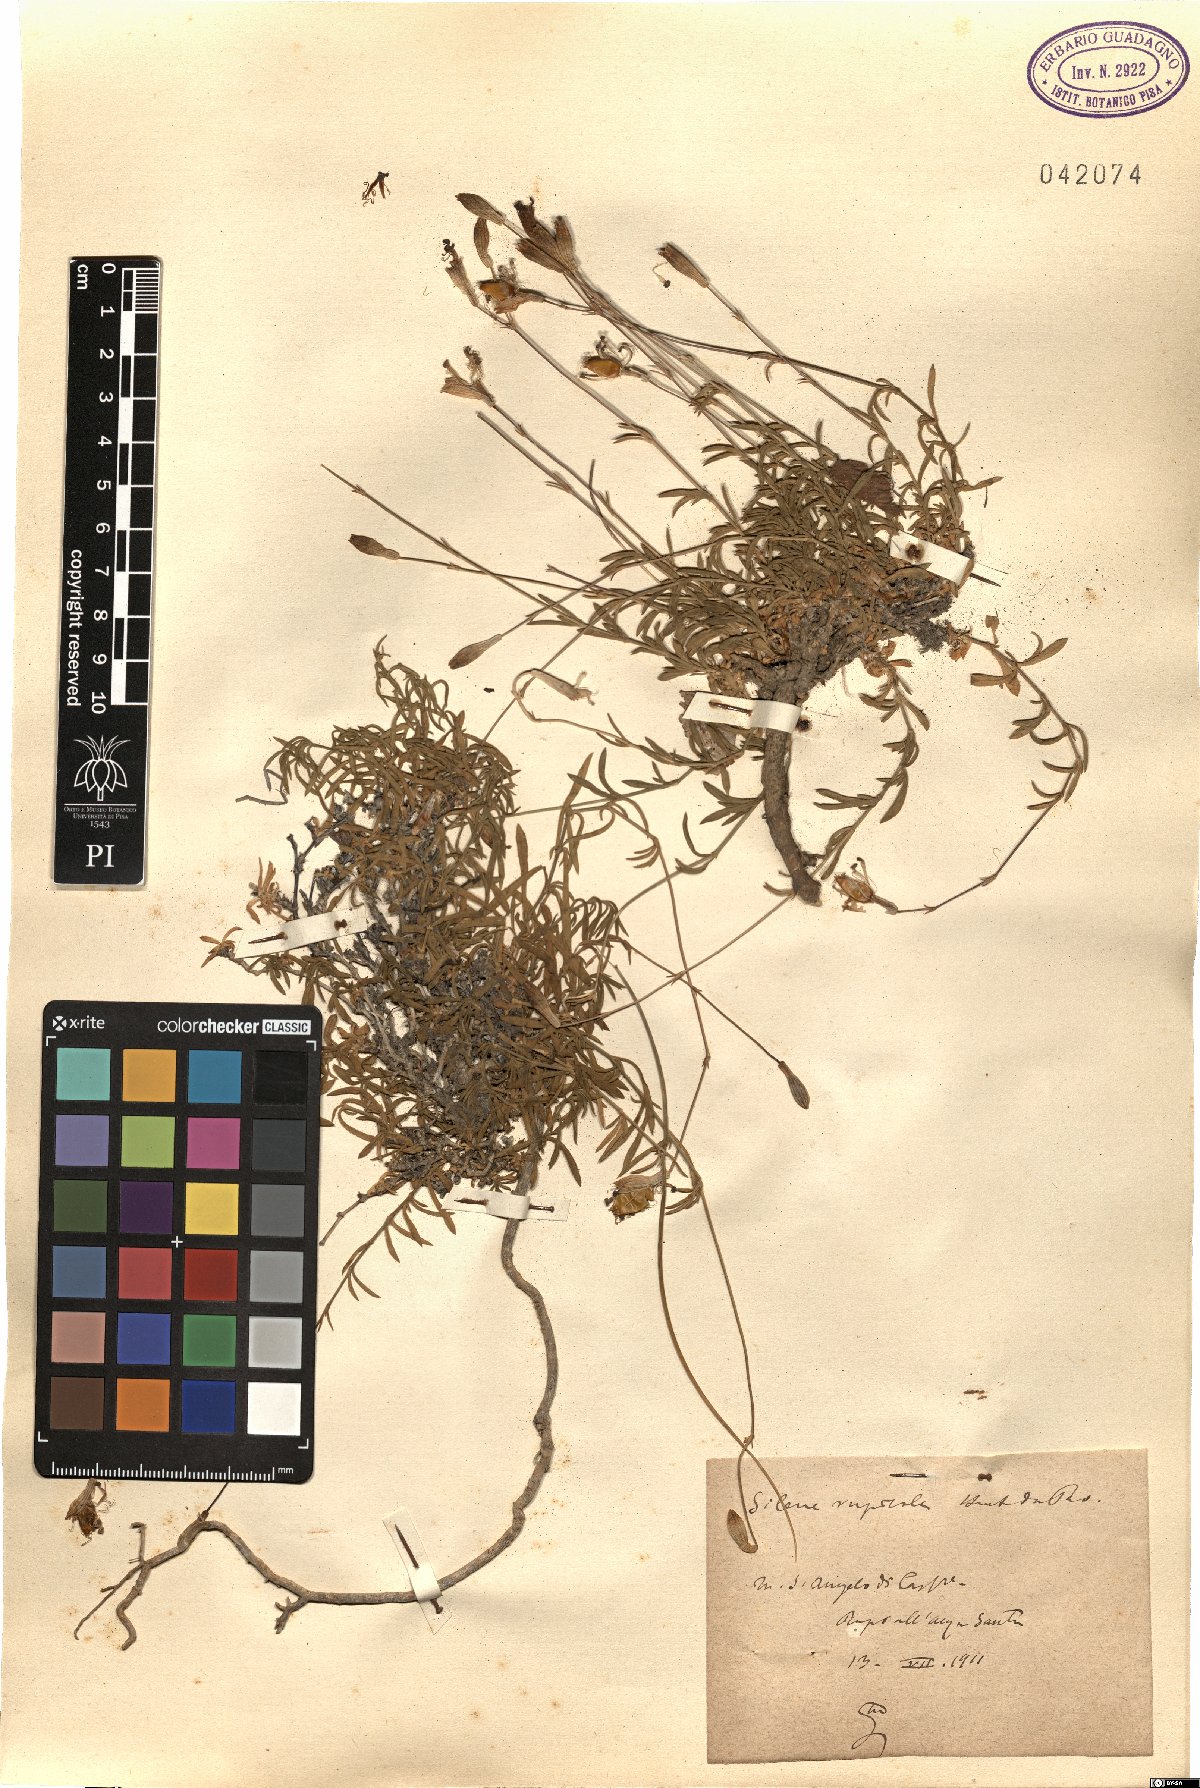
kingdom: Plantae
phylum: Tracheophyta
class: Magnoliopsida
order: Caryophyllales
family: Caryophyllaceae
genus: Silene
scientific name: Silene saxifraga
